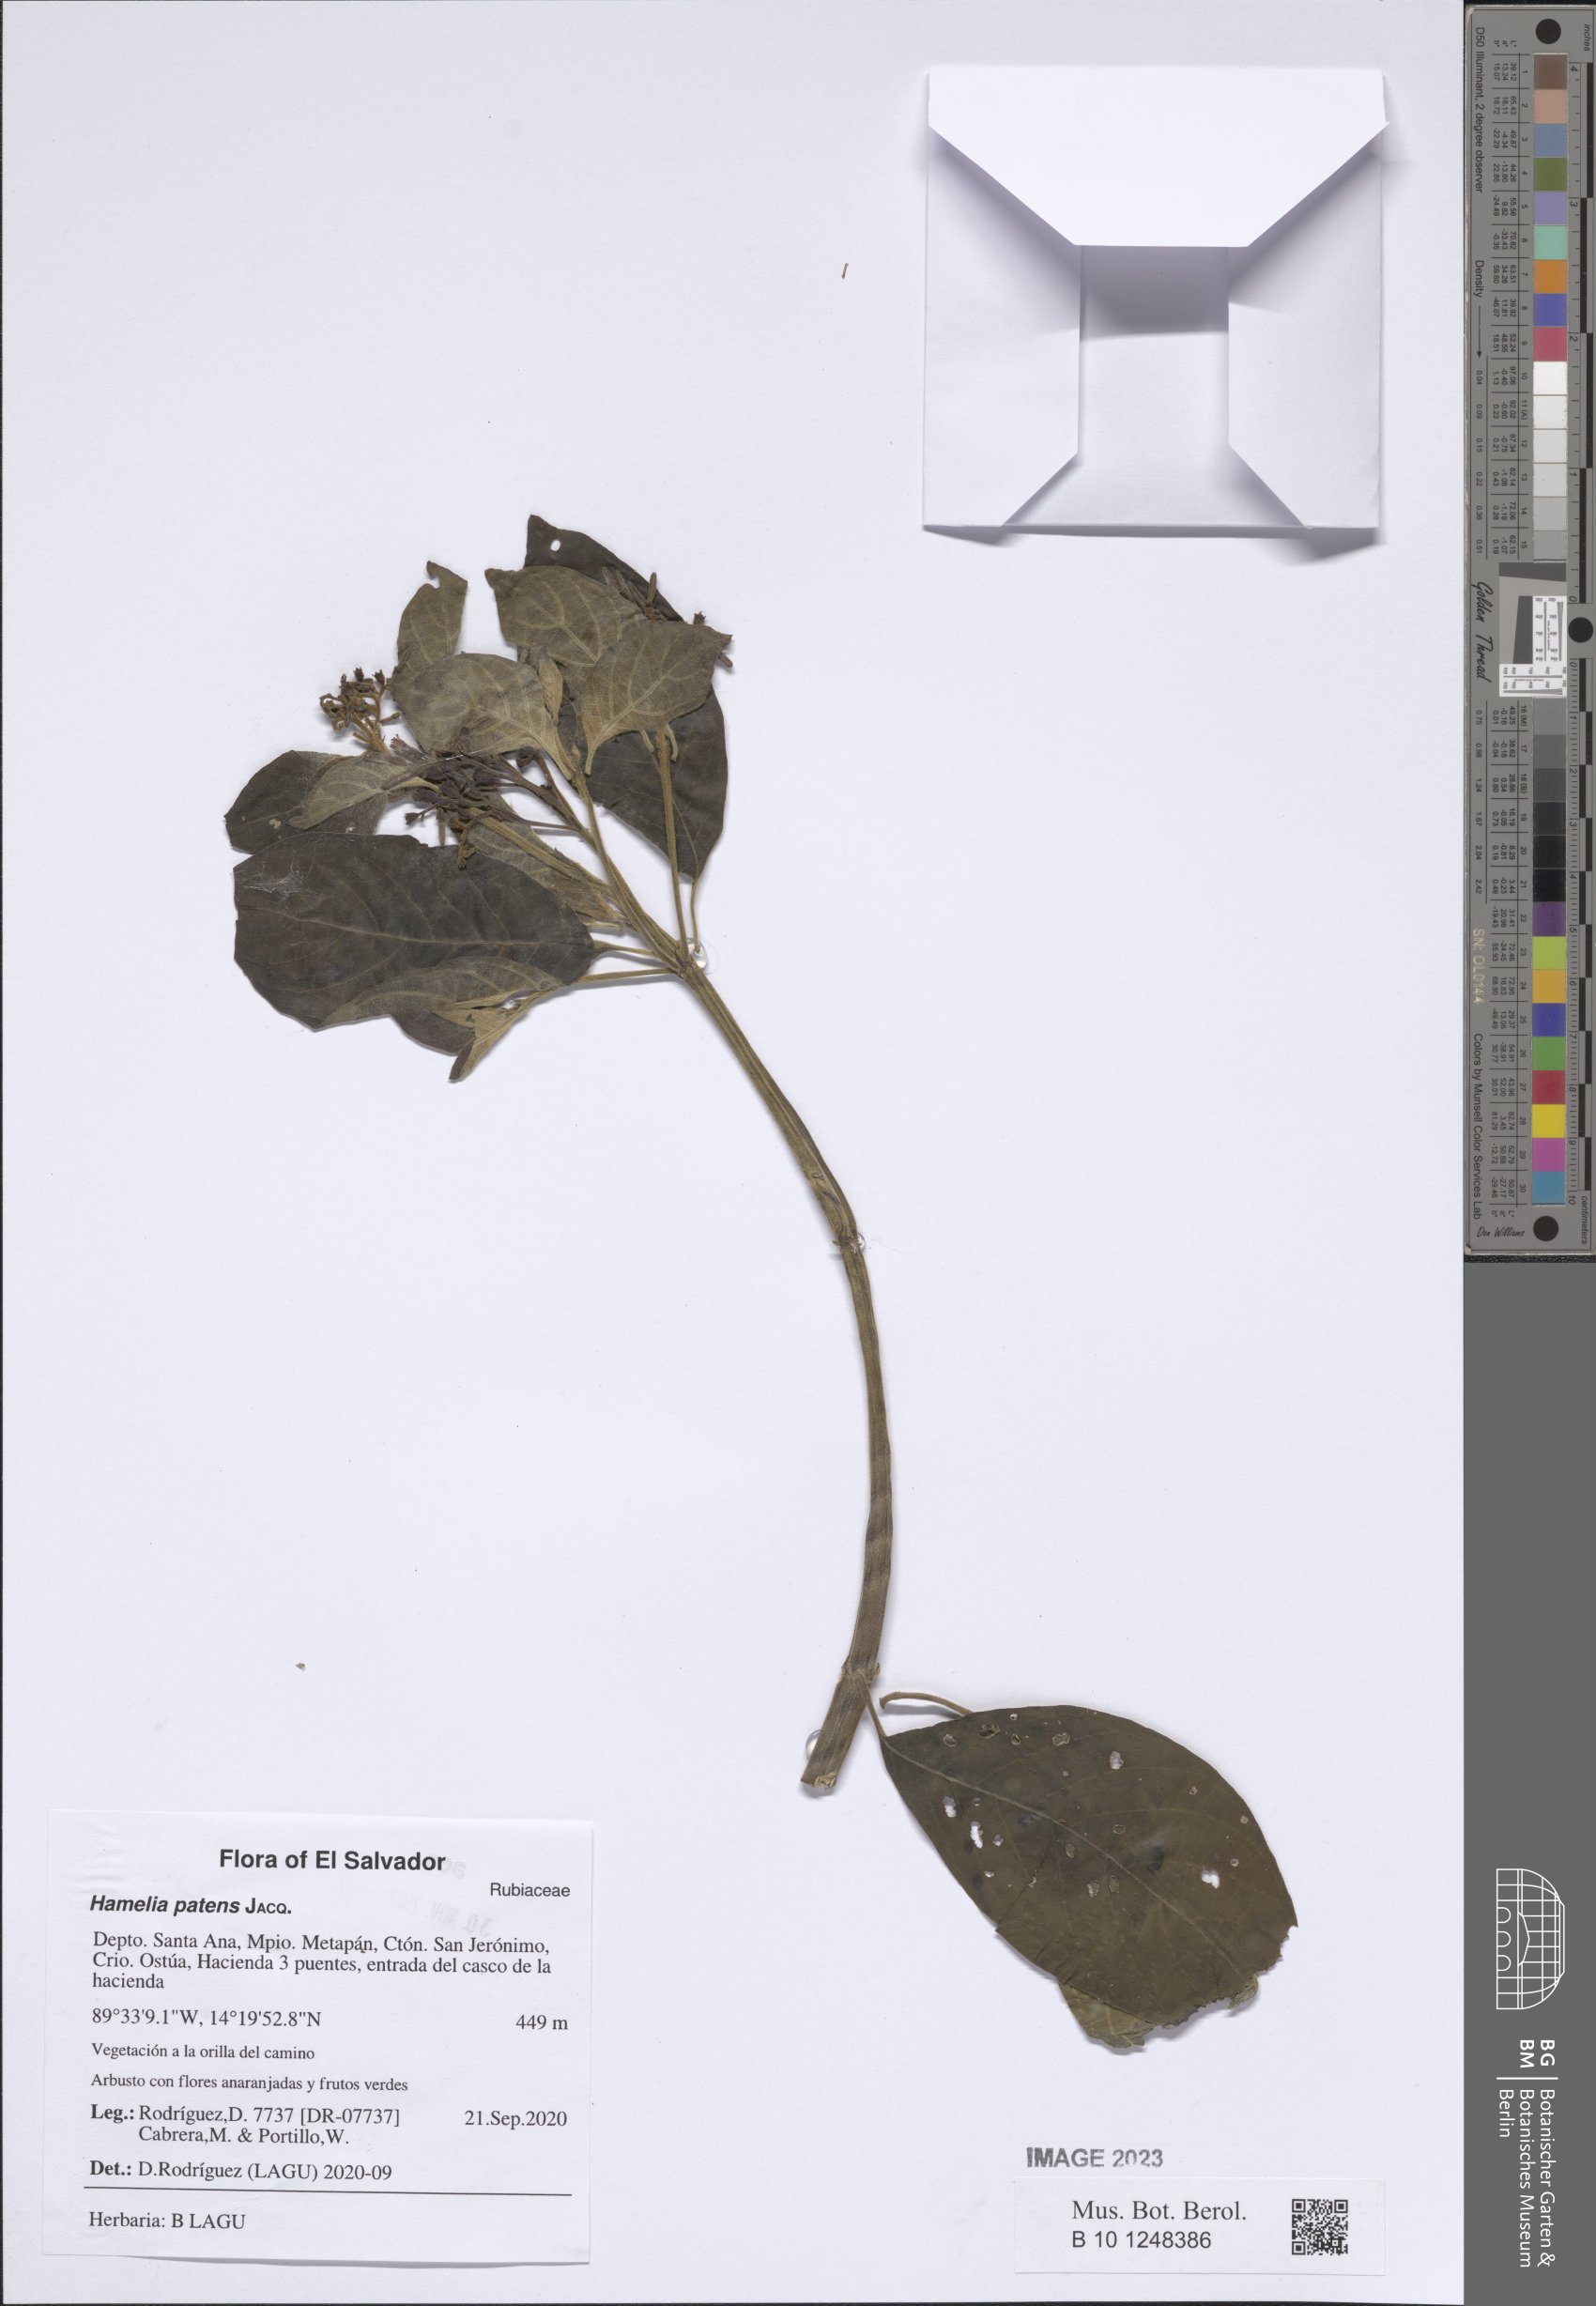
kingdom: Plantae
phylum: Tracheophyta
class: Magnoliopsida
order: Gentianales
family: Rubiaceae
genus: Hamelia
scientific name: Hamelia patens
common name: Redhead
